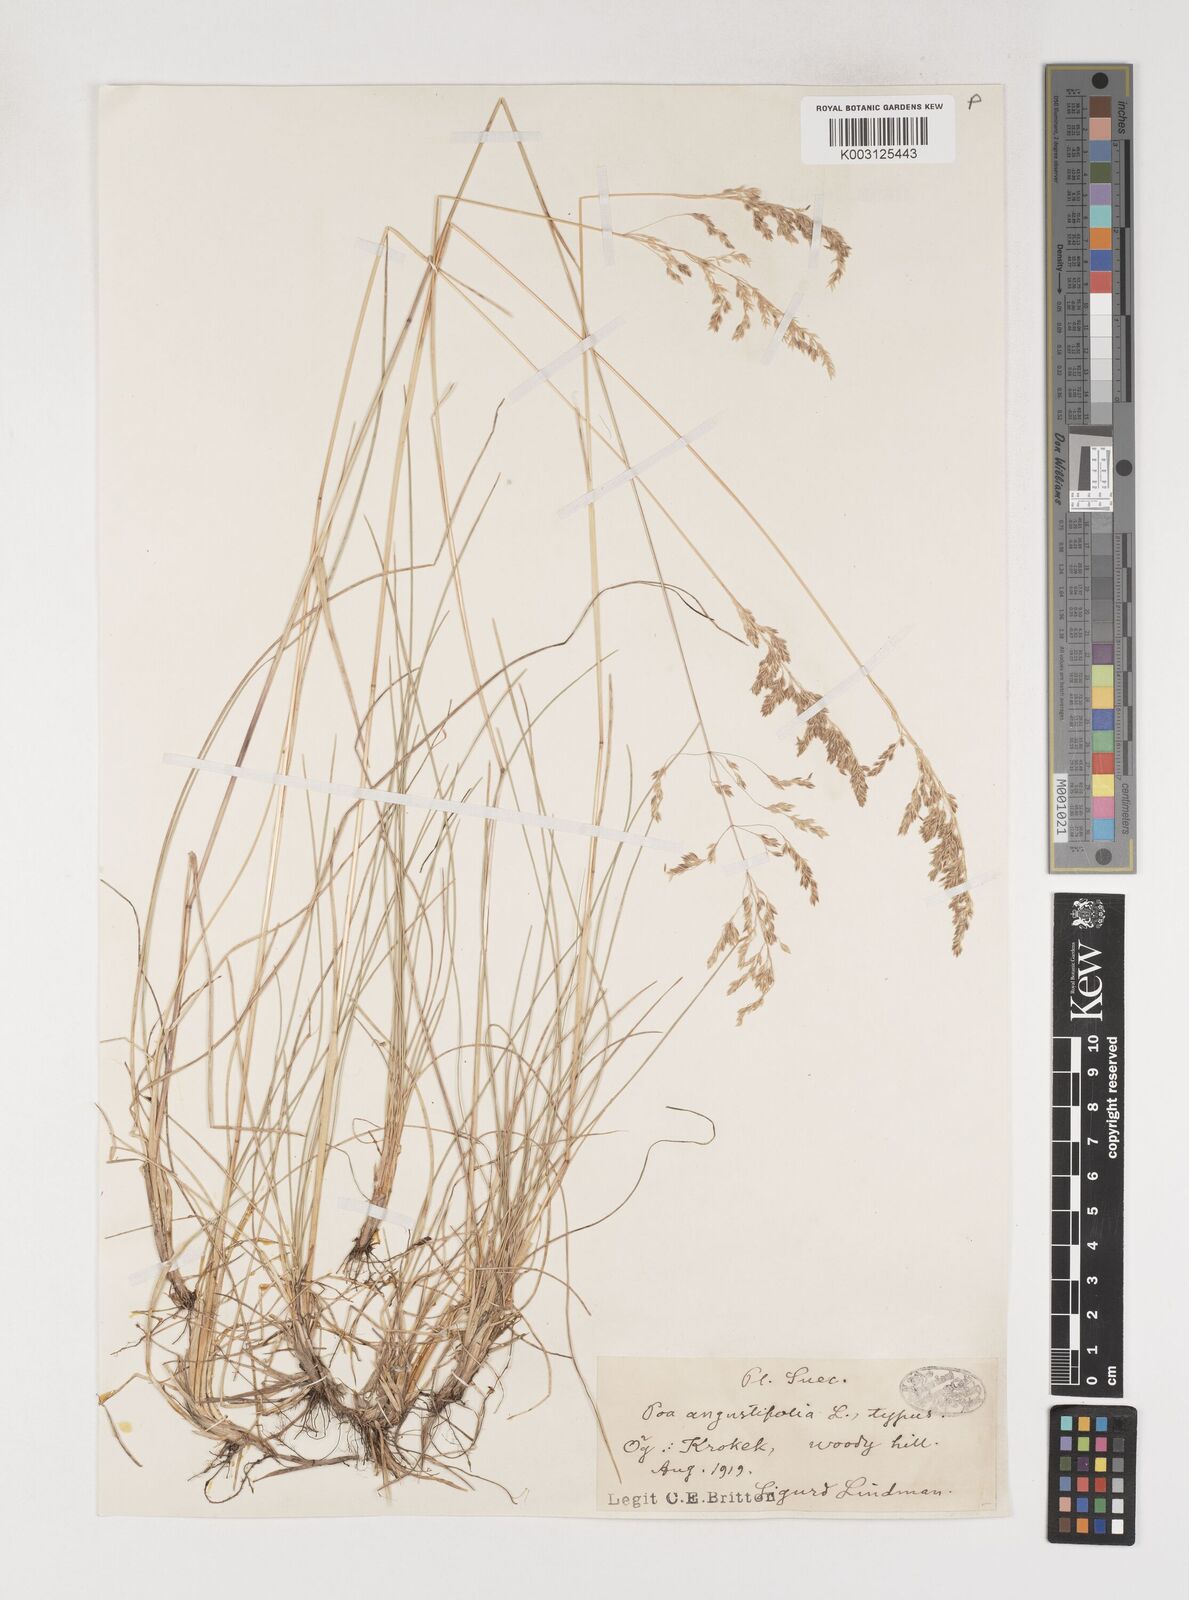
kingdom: Plantae
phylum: Tracheophyta
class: Liliopsida
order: Poales
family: Poaceae
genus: Poa
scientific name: Poa angustifolia
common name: Narrow-leaved meadow-grass
